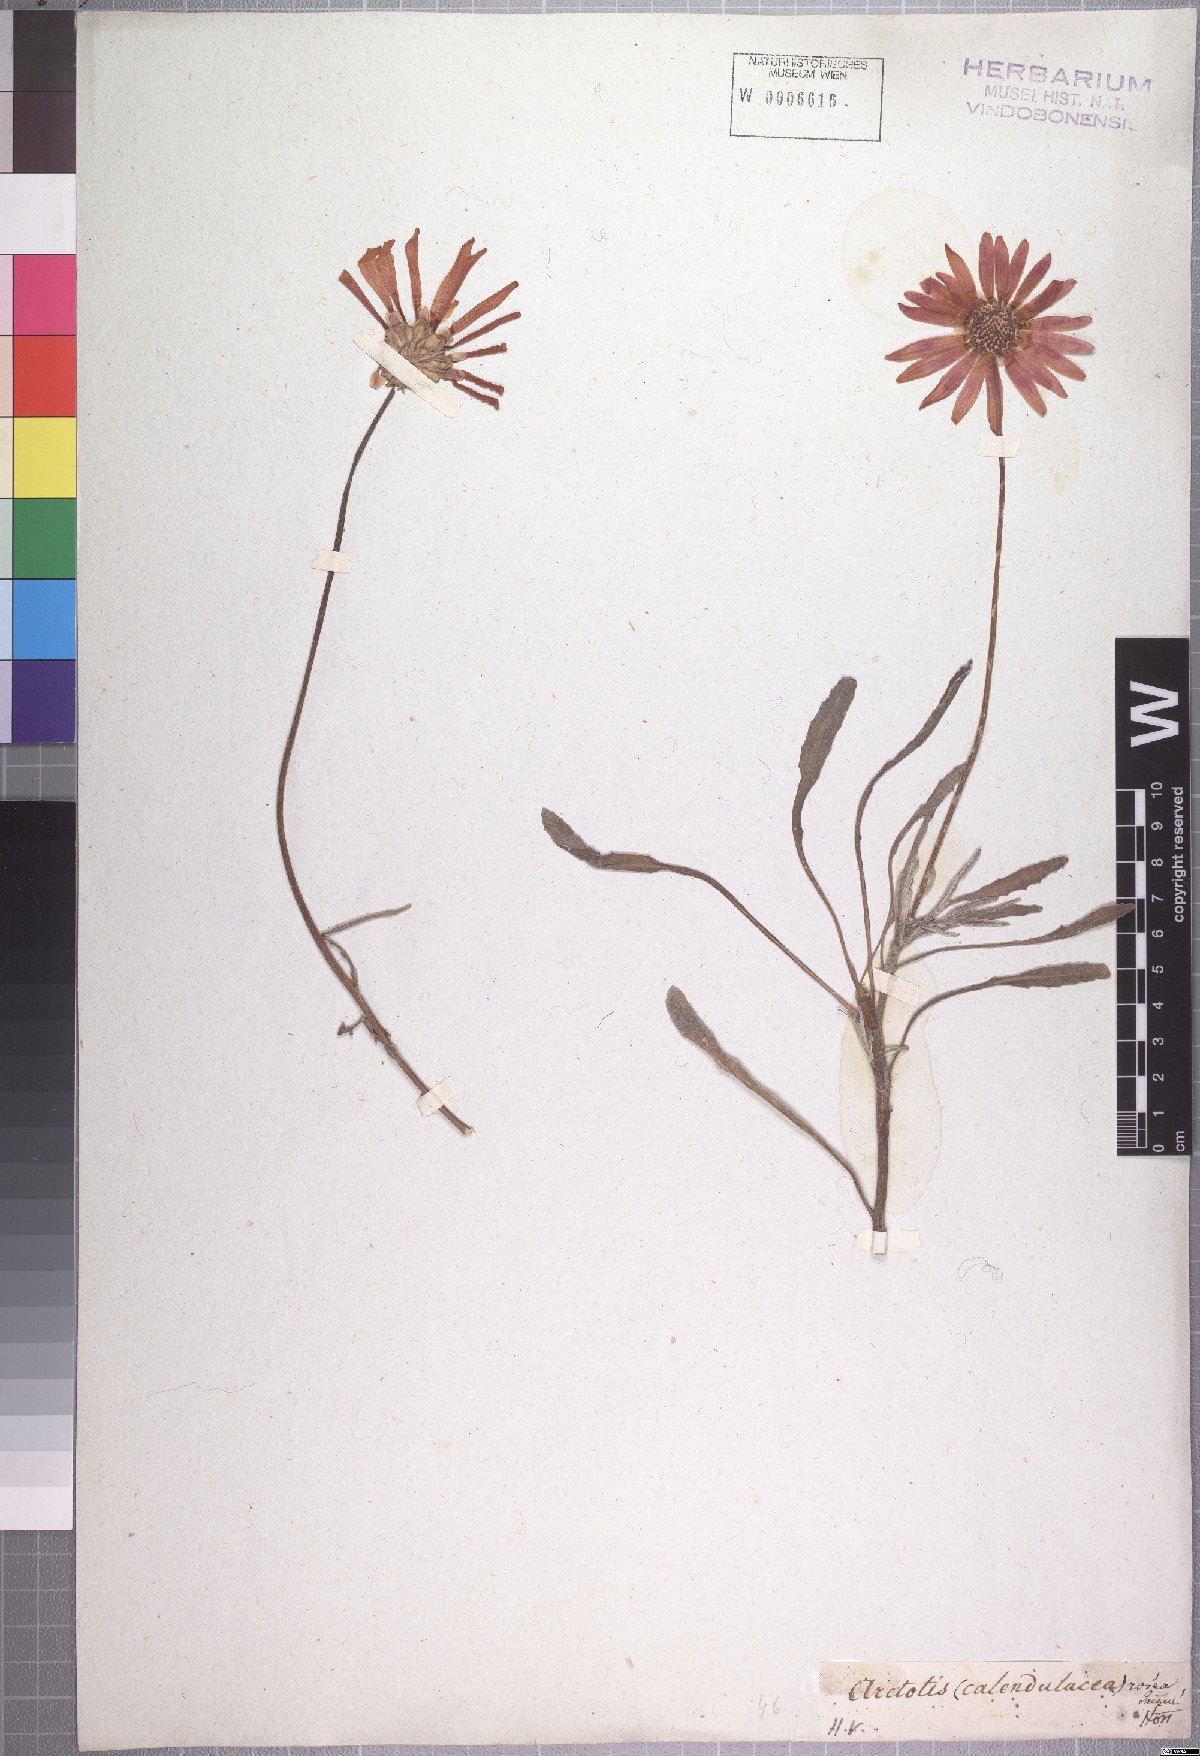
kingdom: Plantae
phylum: Tracheophyta
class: Magnoliopsida
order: Asterales
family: Asteraceae
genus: Arctotis
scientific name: Arctotis rosea
